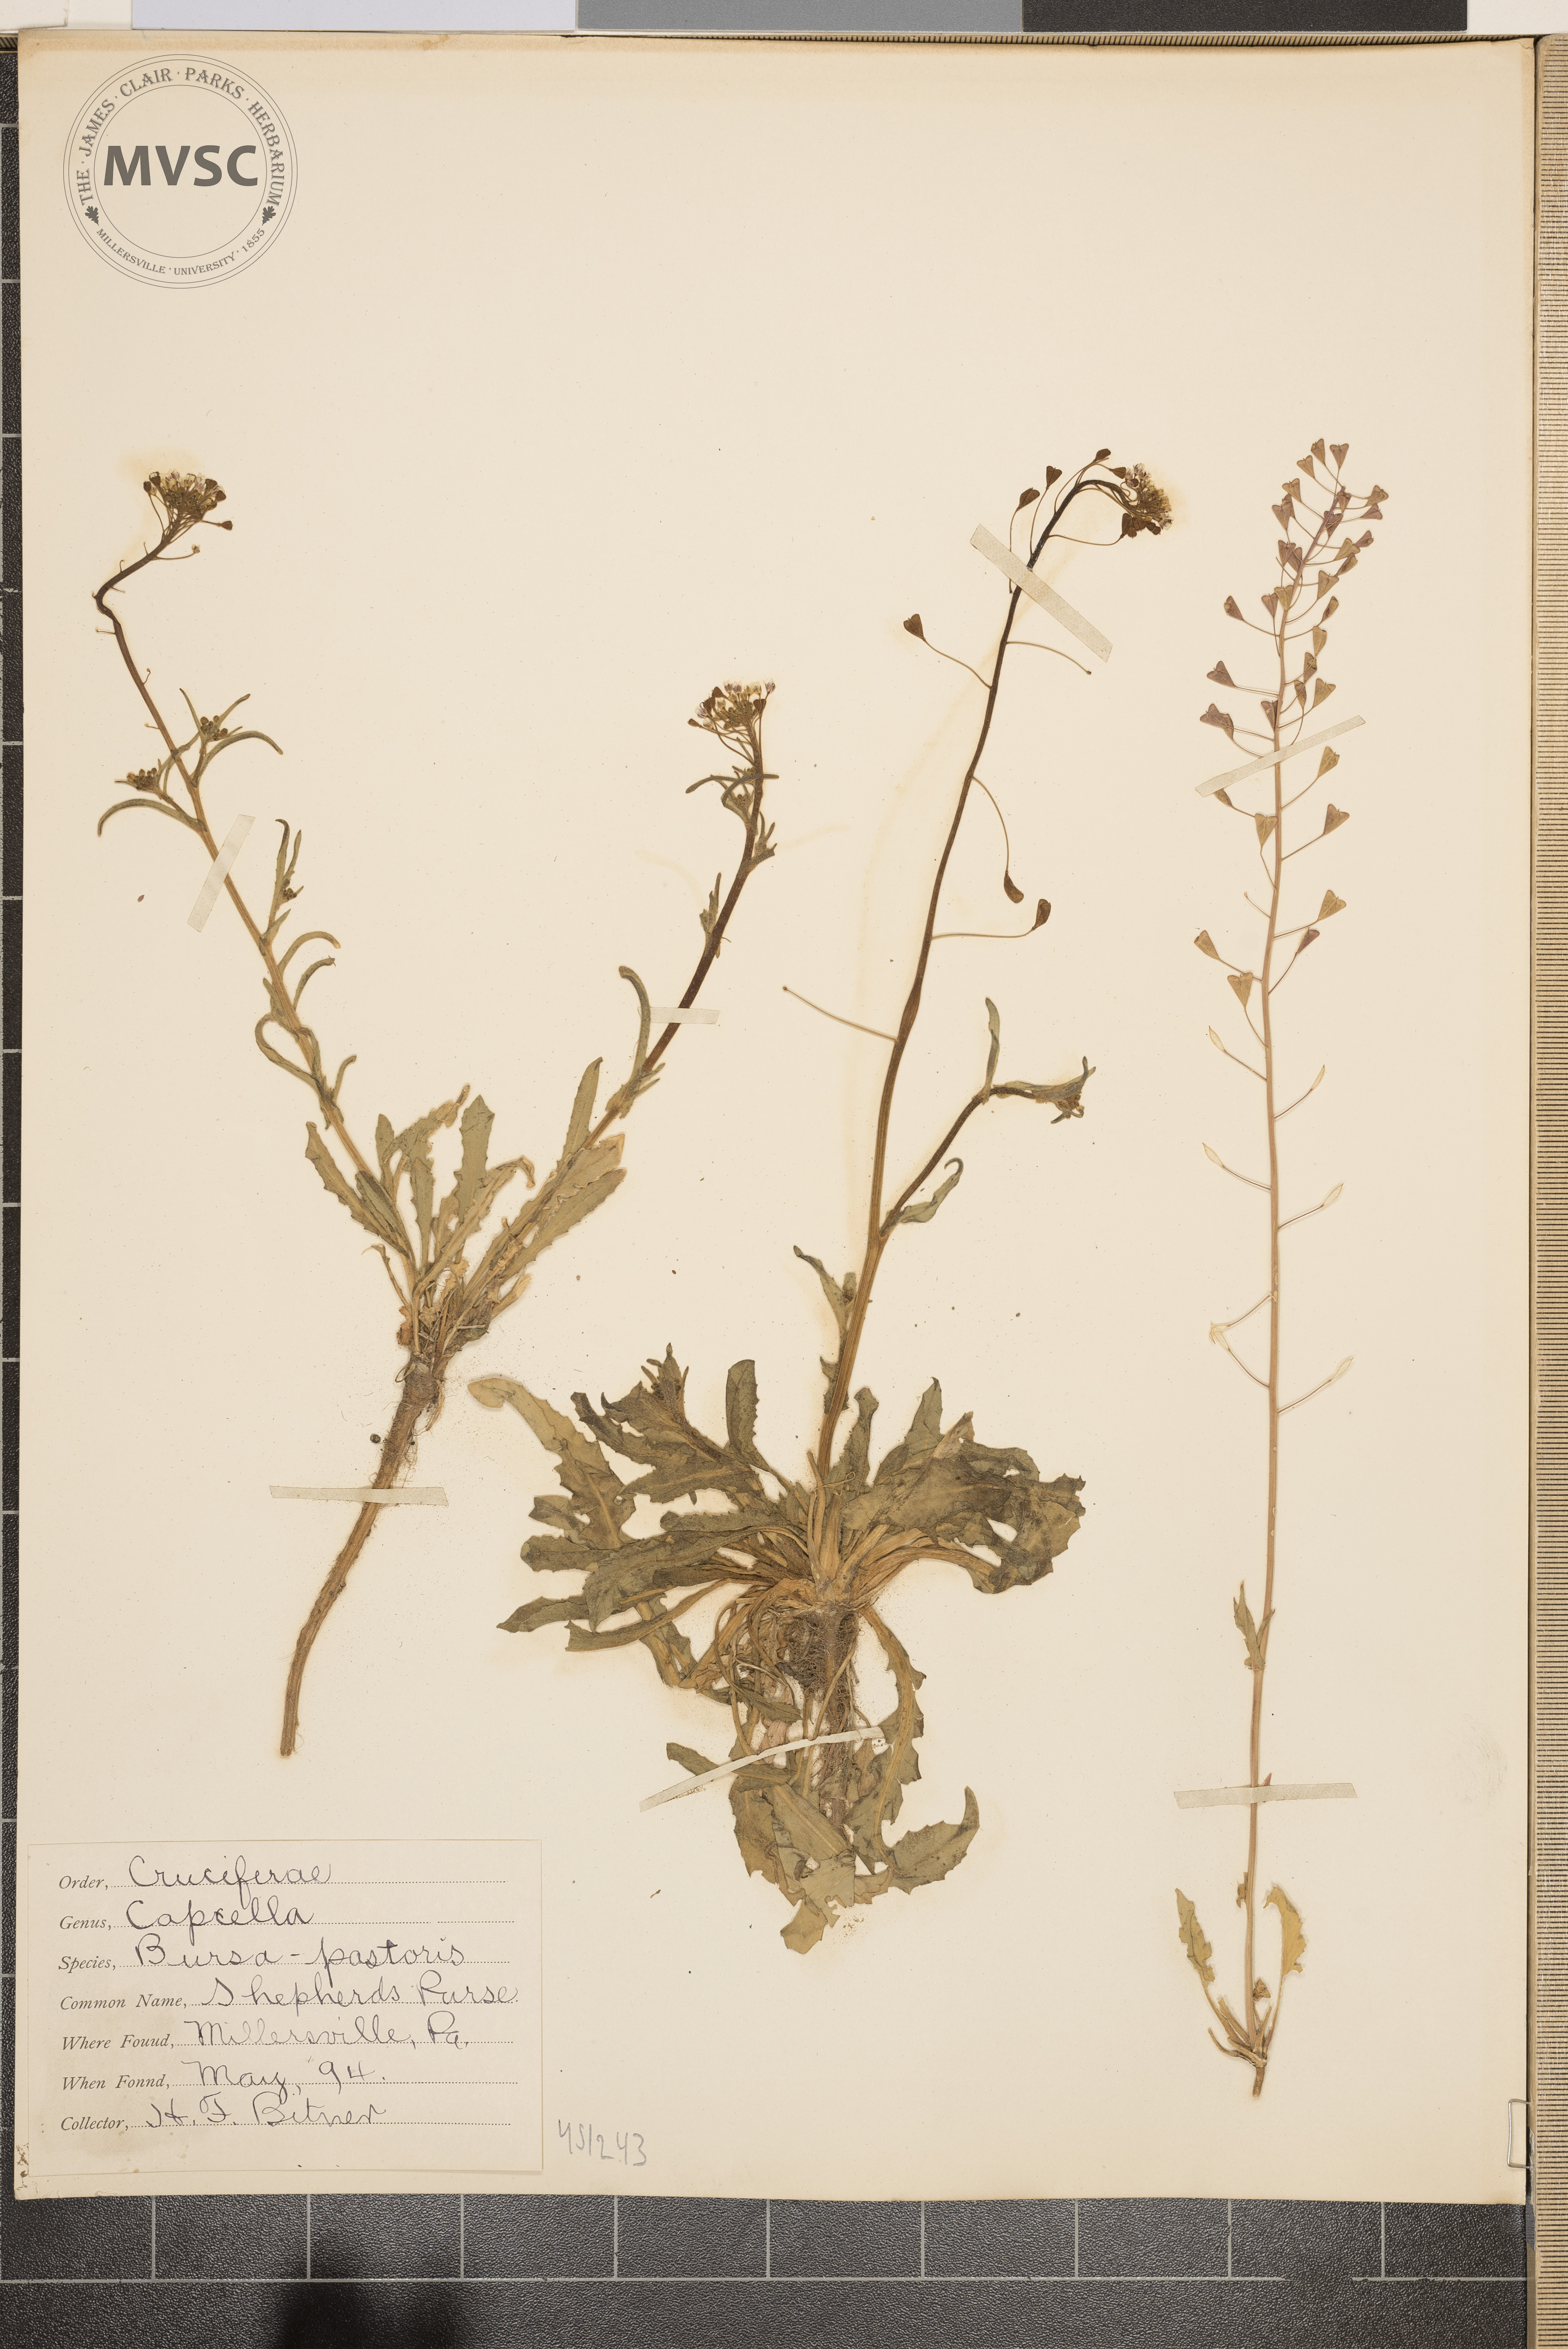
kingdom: Plantae
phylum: Tracheophyta
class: Magnoliopsida
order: Brassicales
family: Brassicaceae
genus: Capsella
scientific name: Capsella bursa-pastoris
